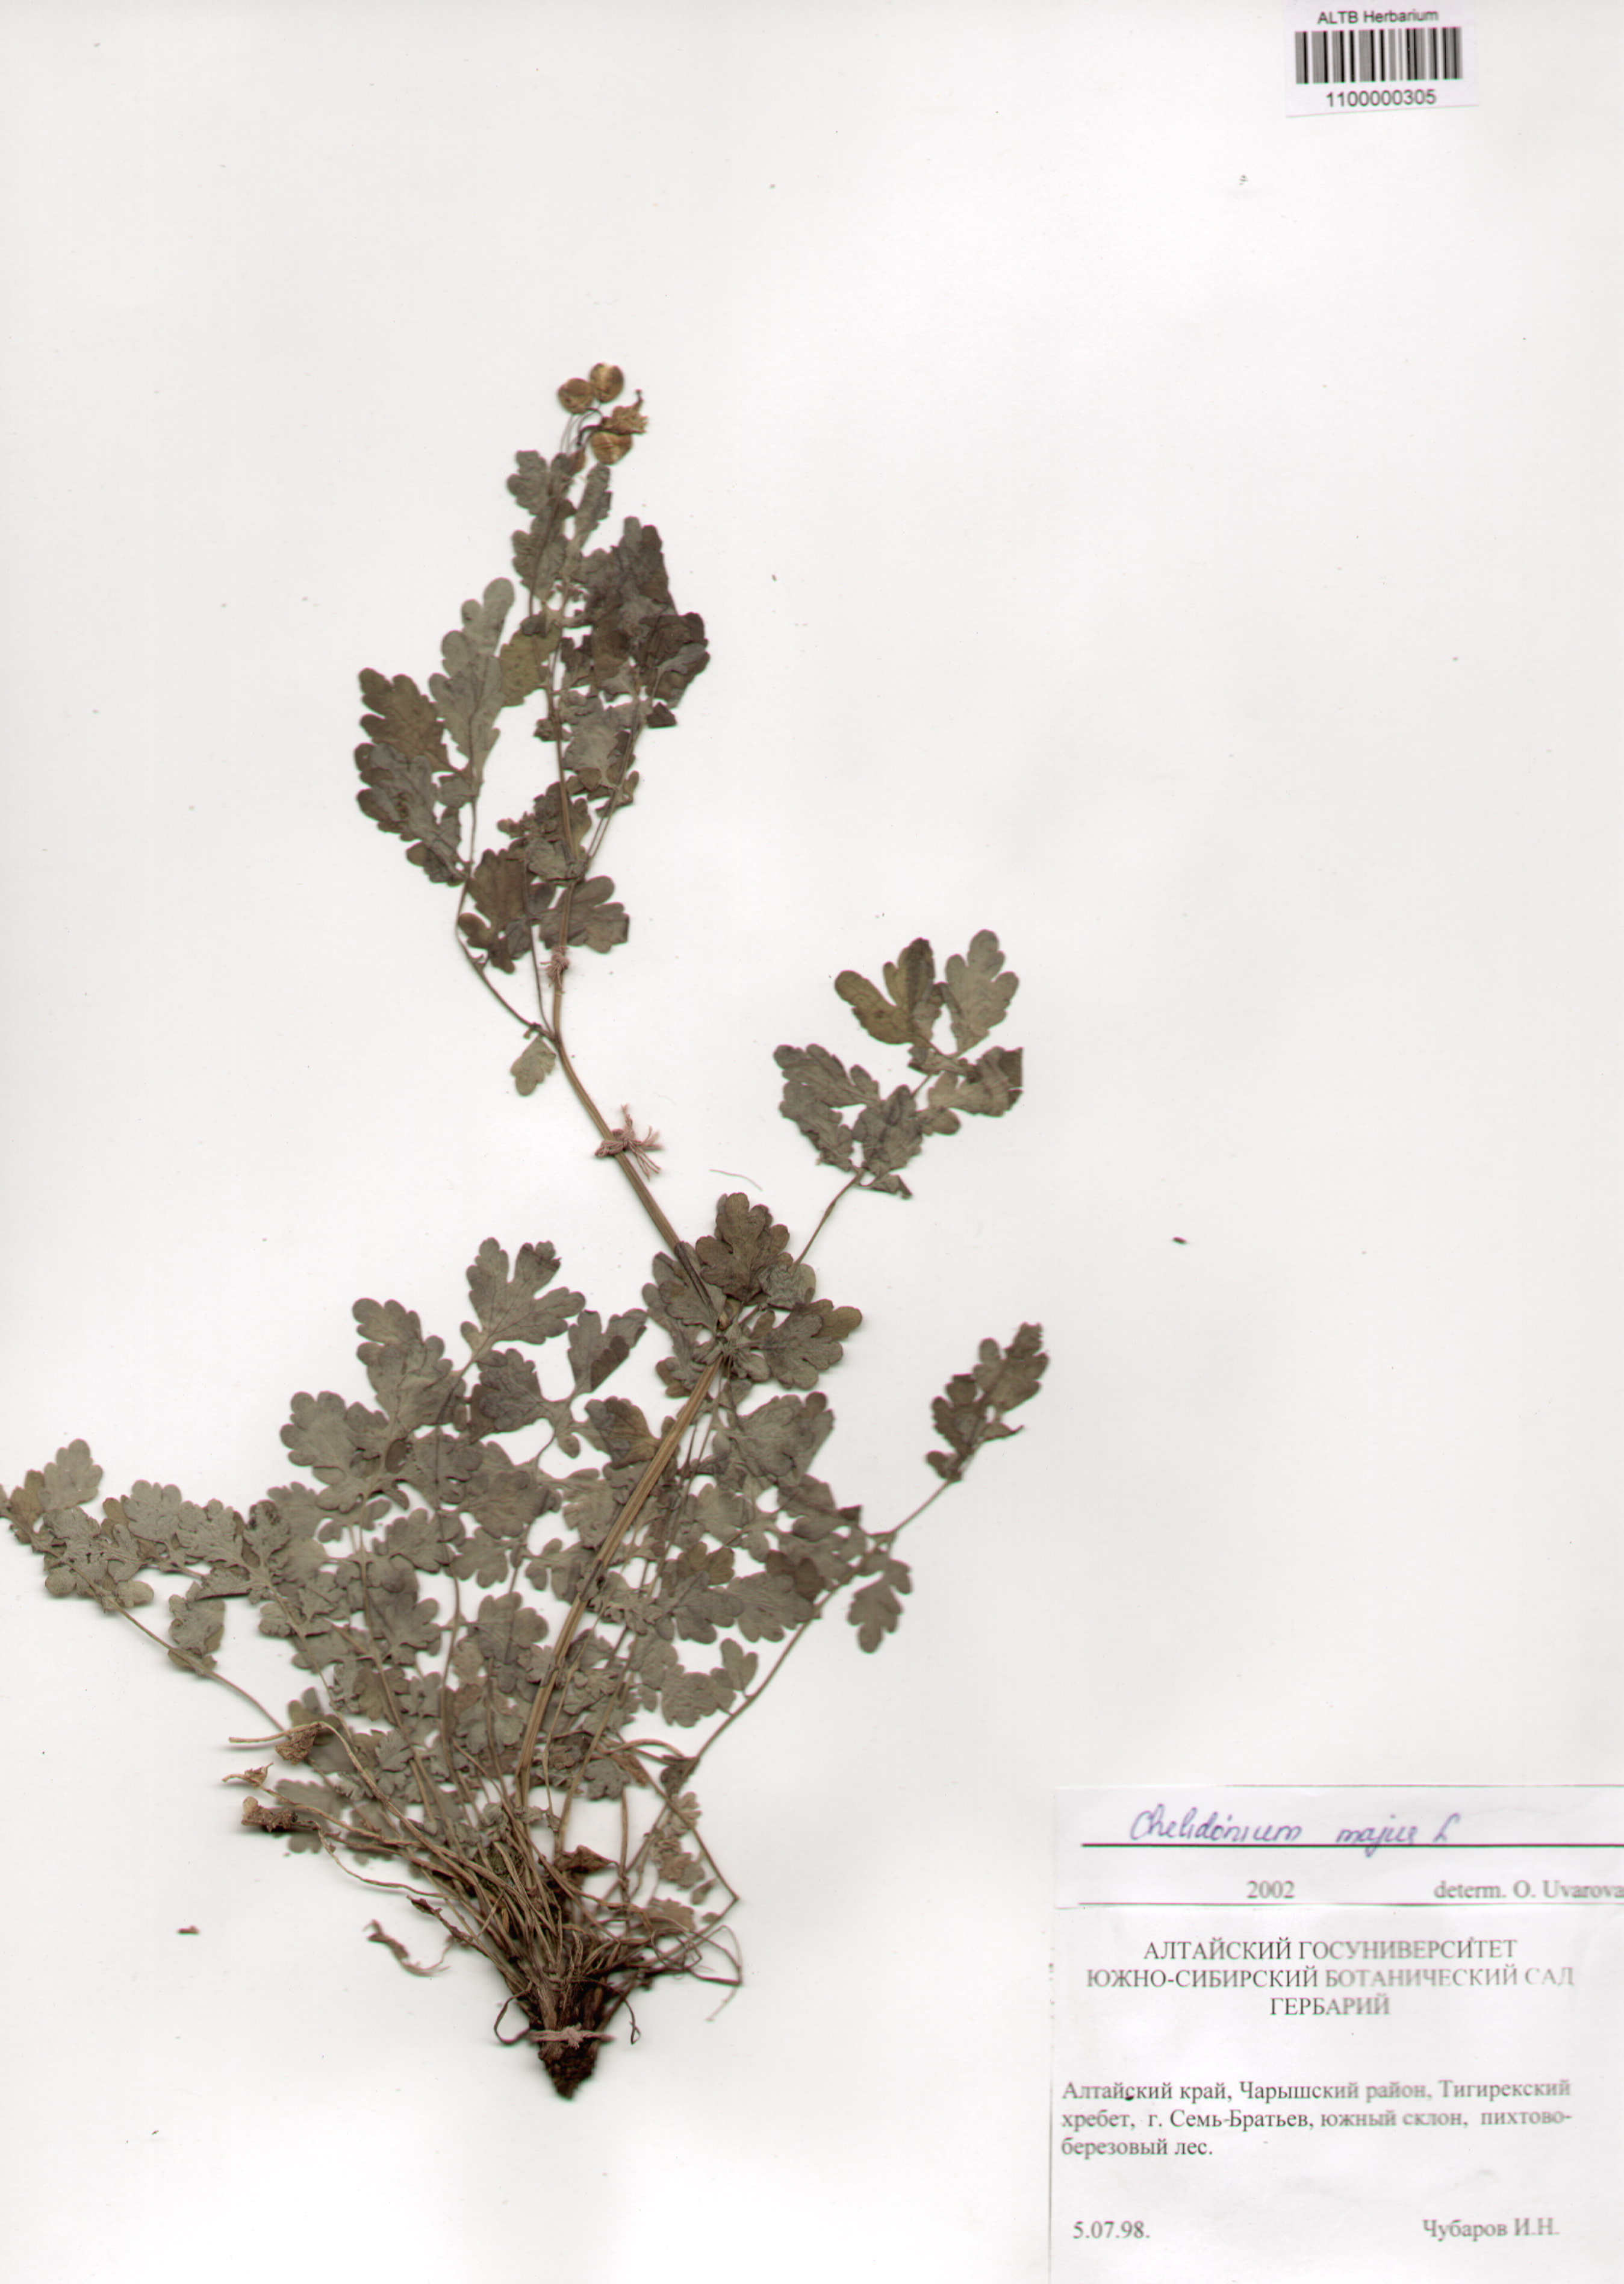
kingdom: Plantae
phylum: Tracheophyta
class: Magnoliopsida
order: Ranunculales
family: Papaveraceae
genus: Chelidonium
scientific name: Chelidonium majus
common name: Greater celandine
